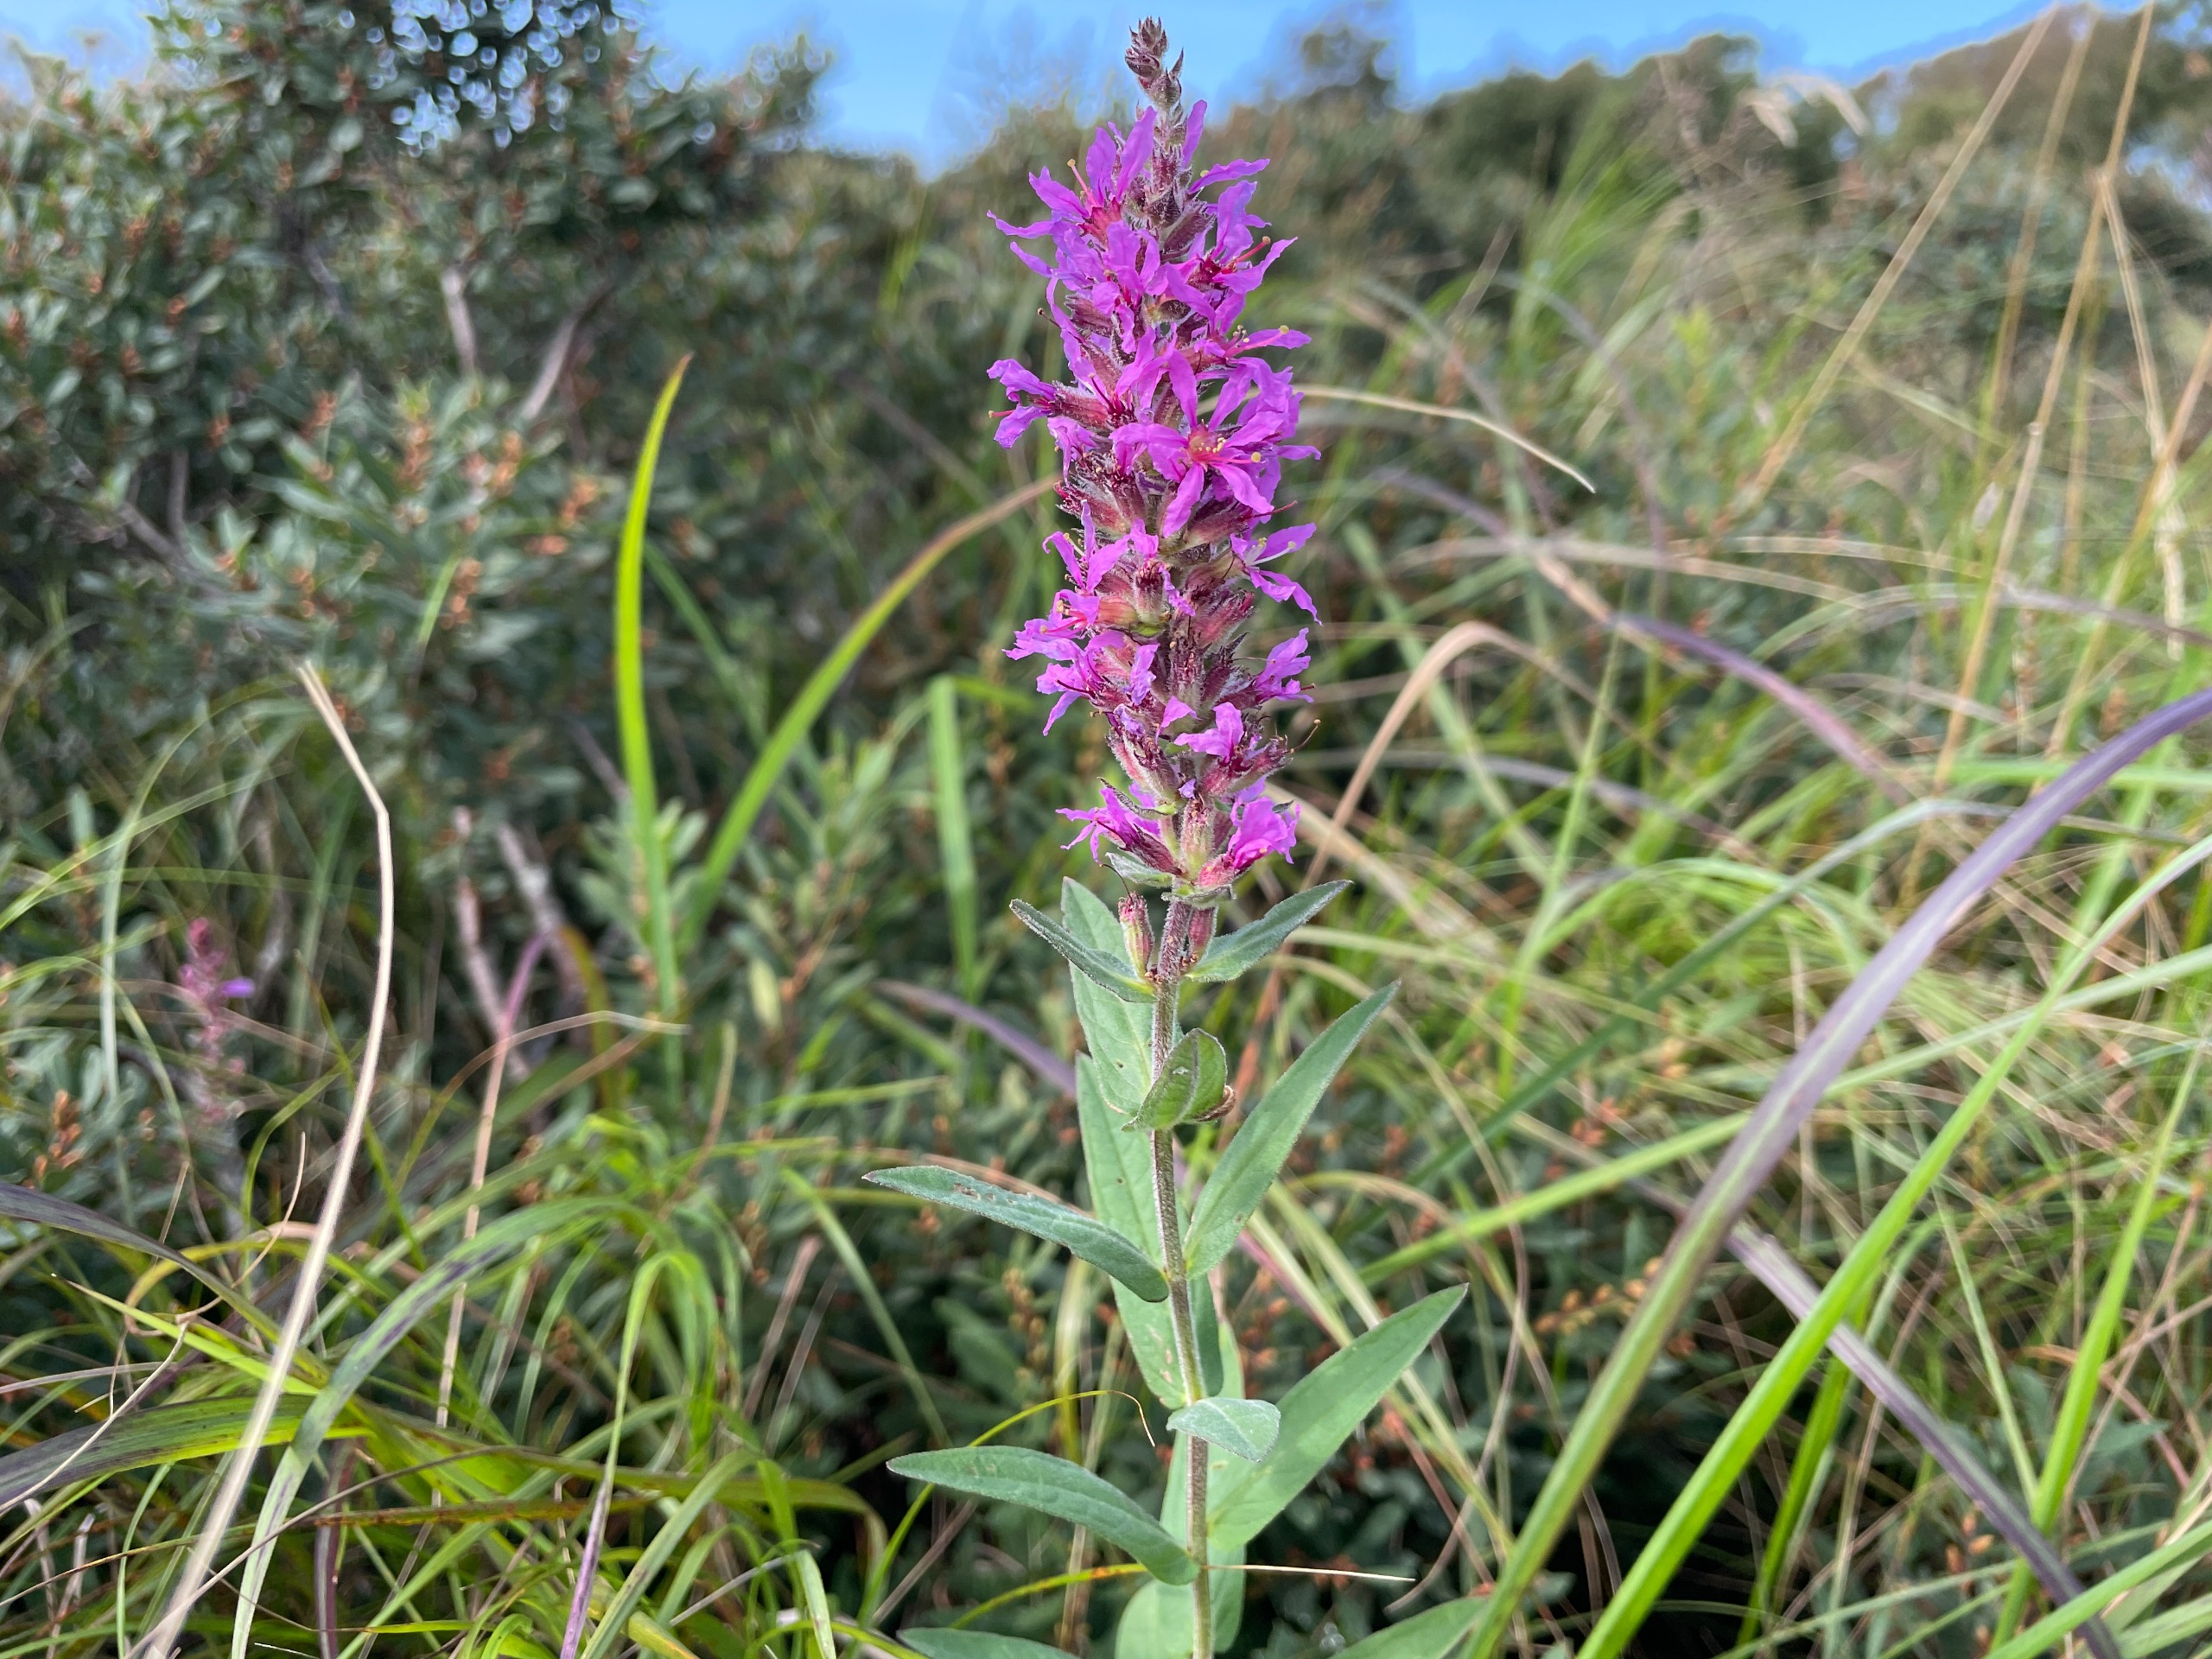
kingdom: Plantae
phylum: Tracheophyta
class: Magnoliopsida
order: Myrtales
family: Lythraceae
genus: Lythrum
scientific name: Lythrum salicaria
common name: Kattehale
